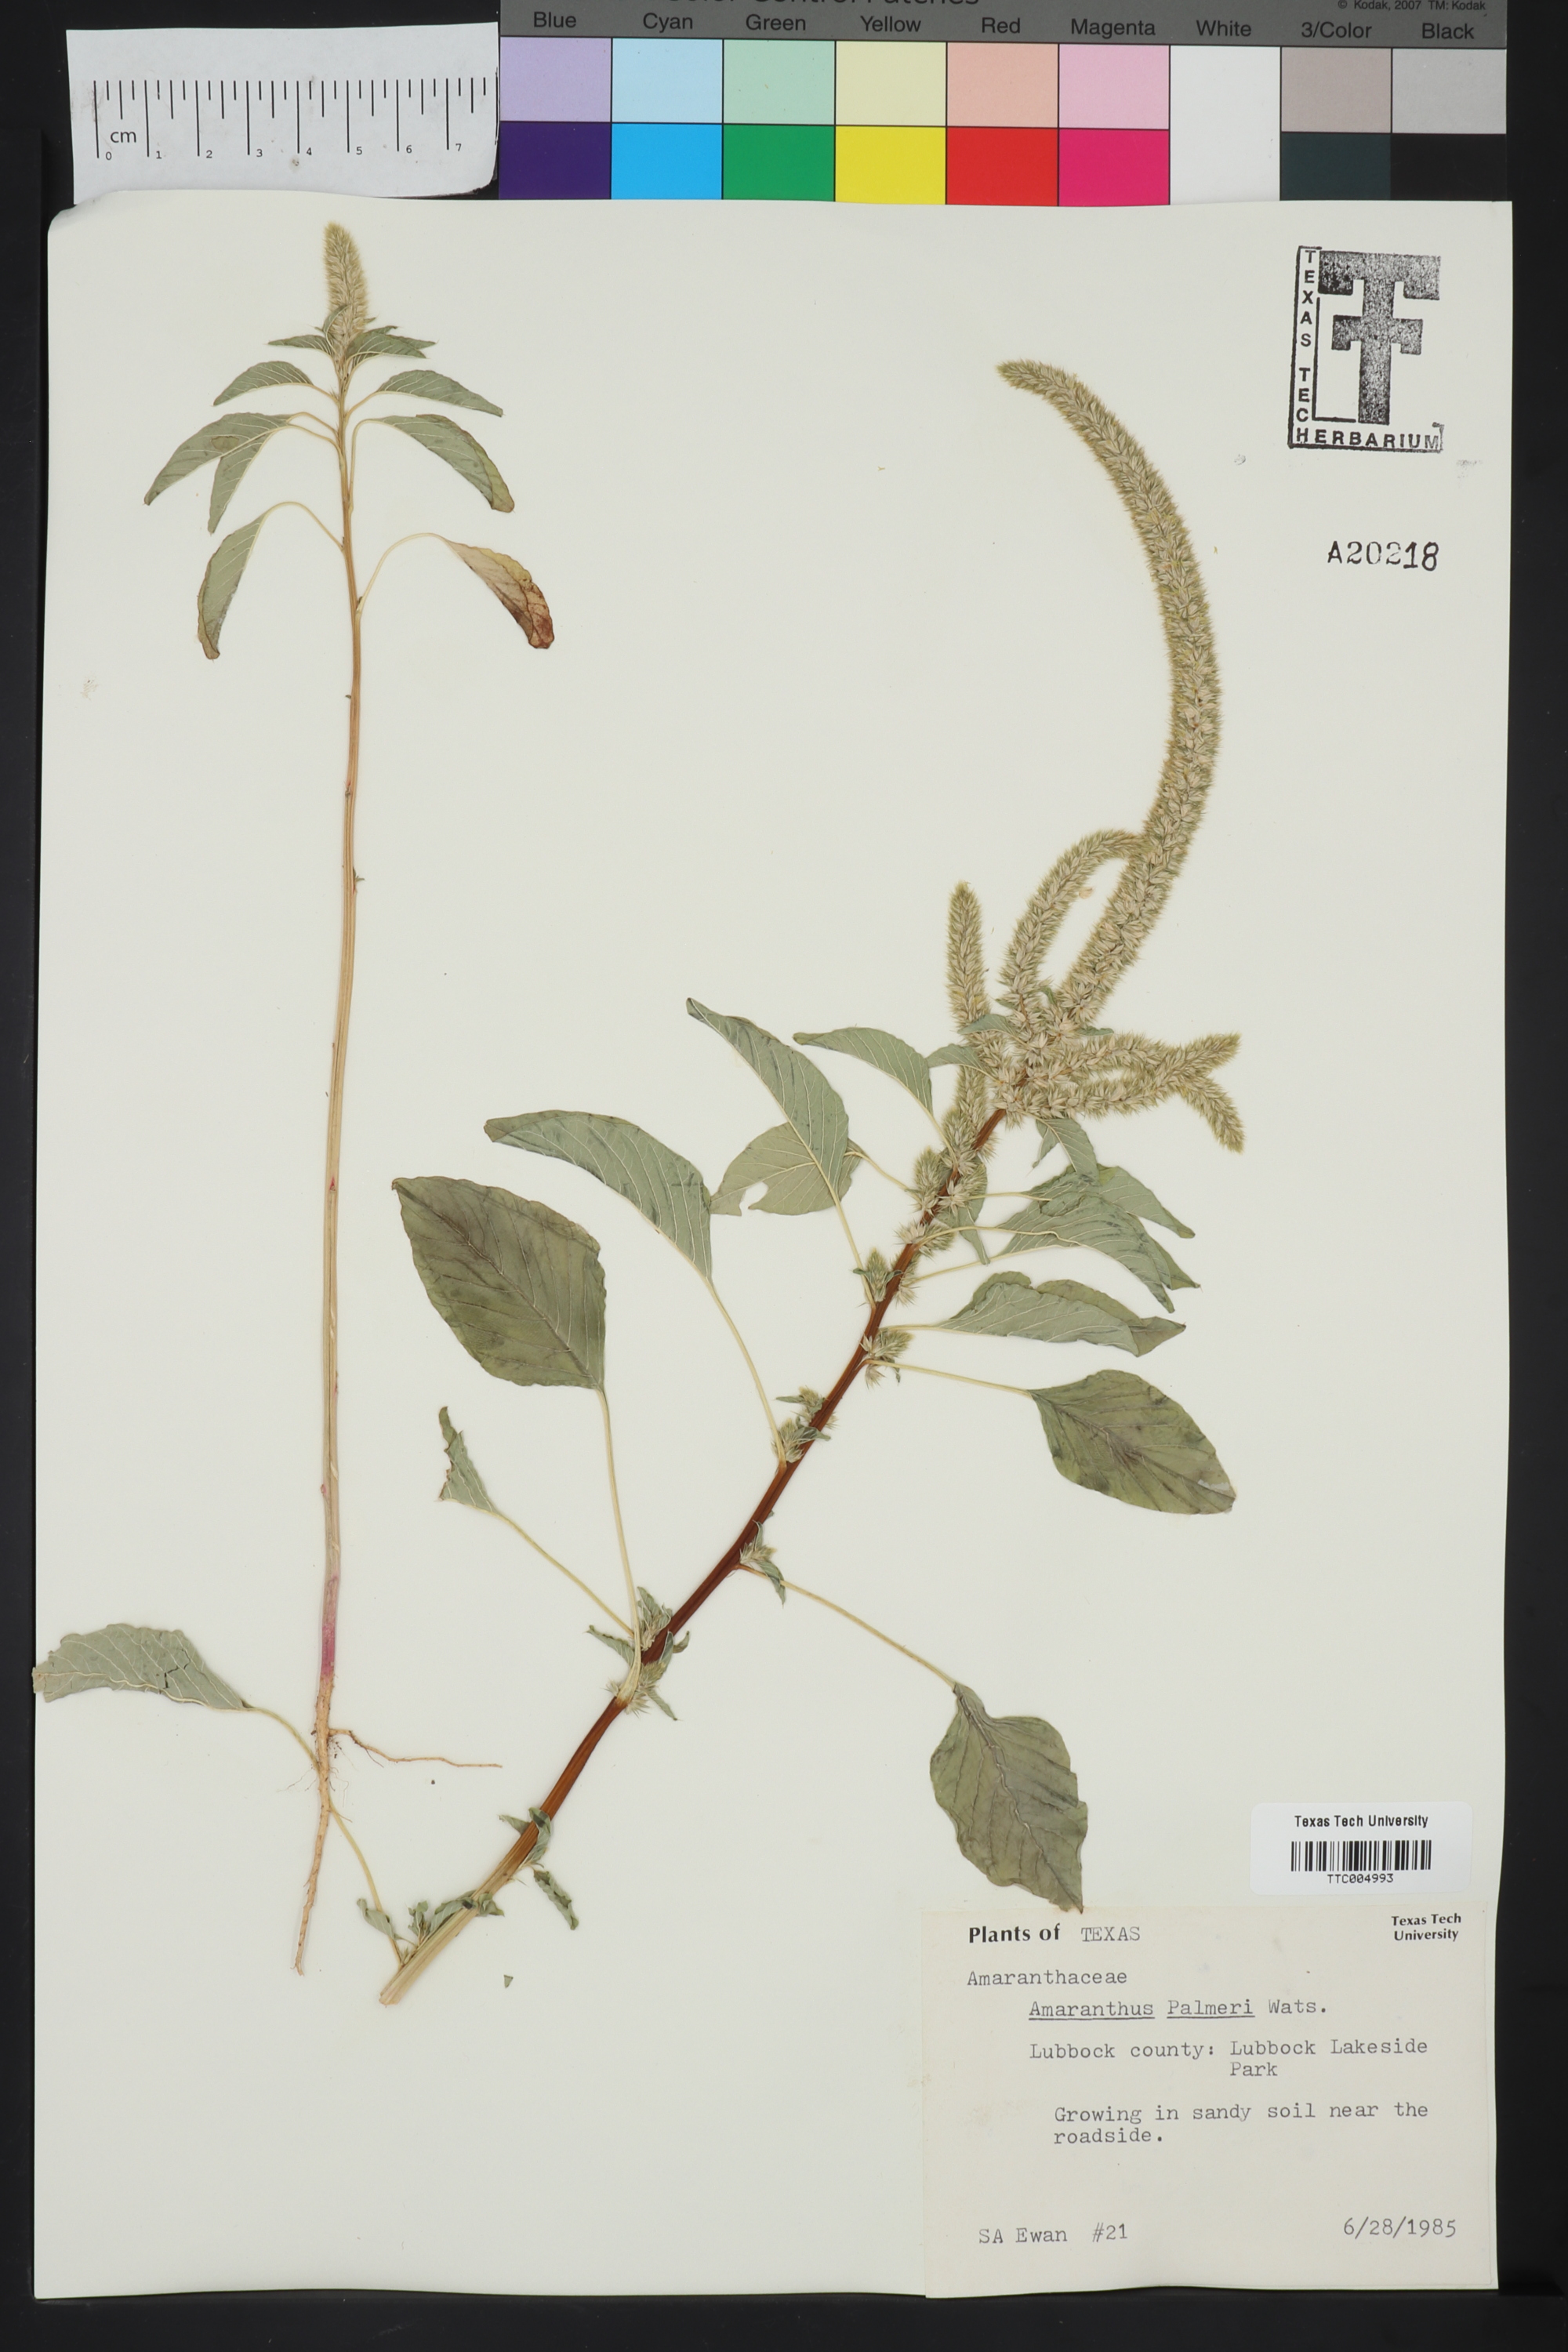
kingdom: Plantae
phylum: Tracheophyta
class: Magnoliopsida
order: Caryophyllales
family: Amaranthaceae
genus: Amaranthus
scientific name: Amaranthus palmeri
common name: Dioecious amaranth
